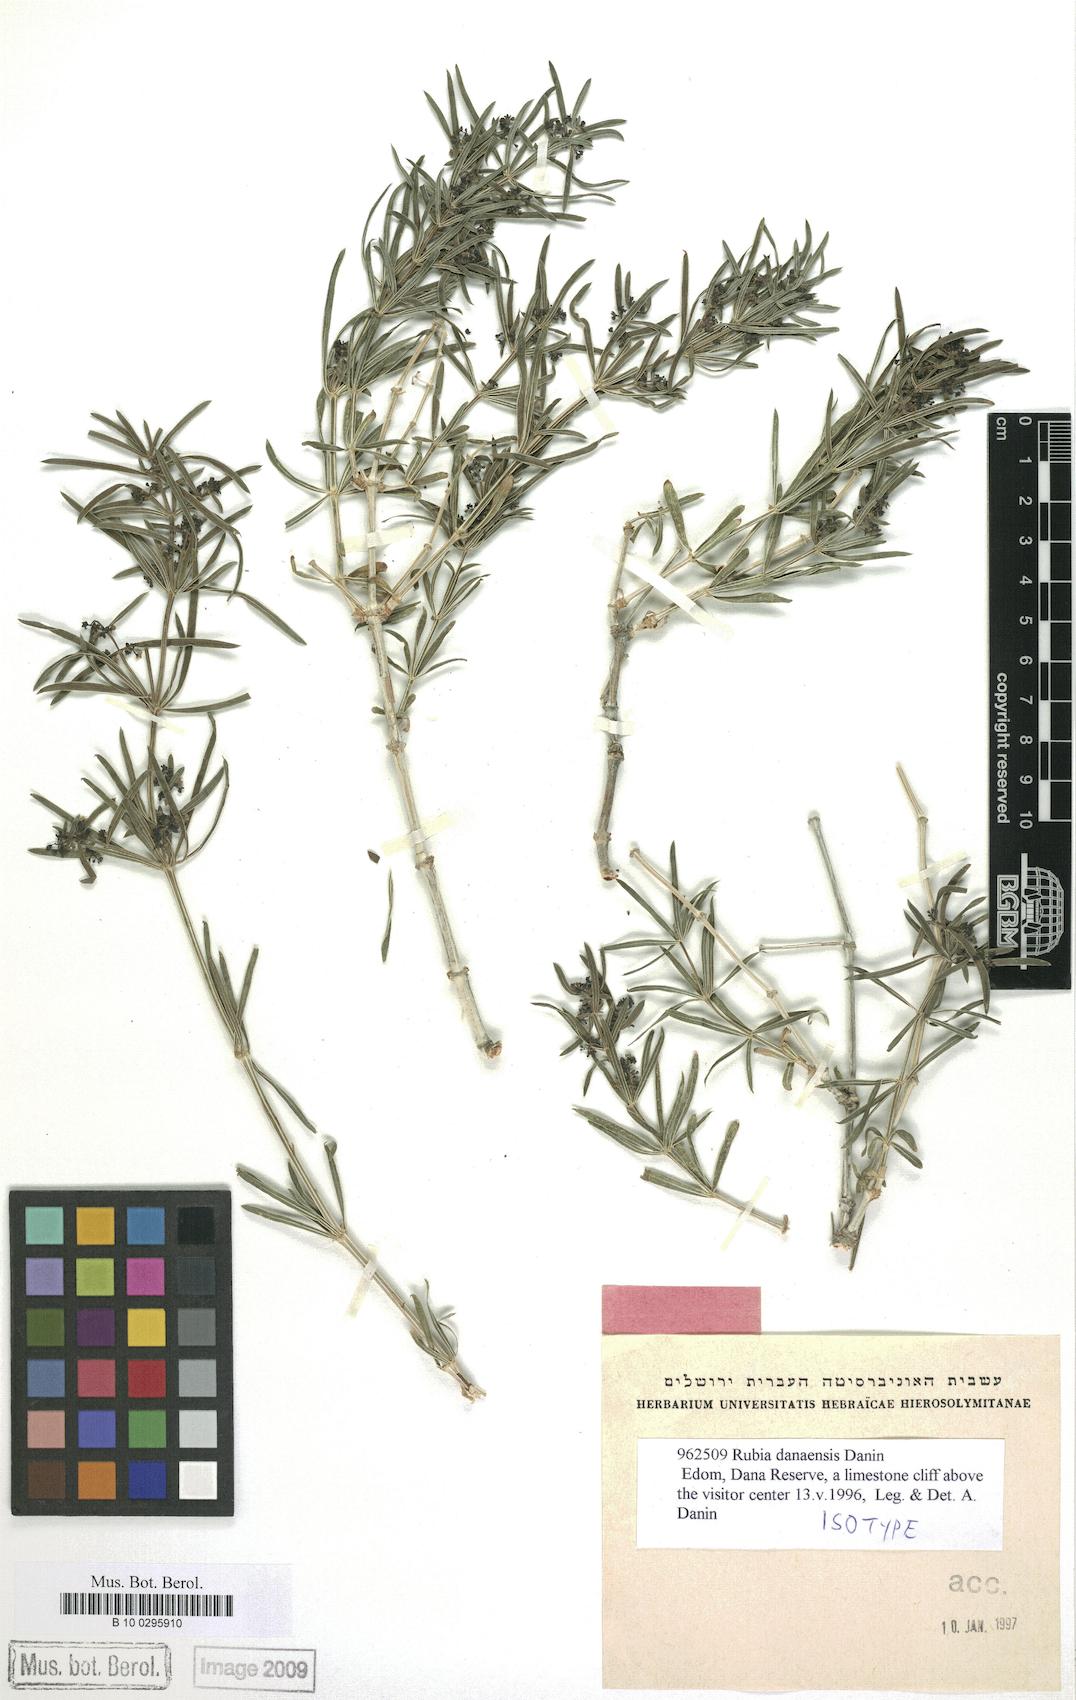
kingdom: Plantae
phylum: Tracheophyta
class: Magnoliopsida
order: Gentianales
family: Rubiaceae
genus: Rubia
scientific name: Rubia danaensis
